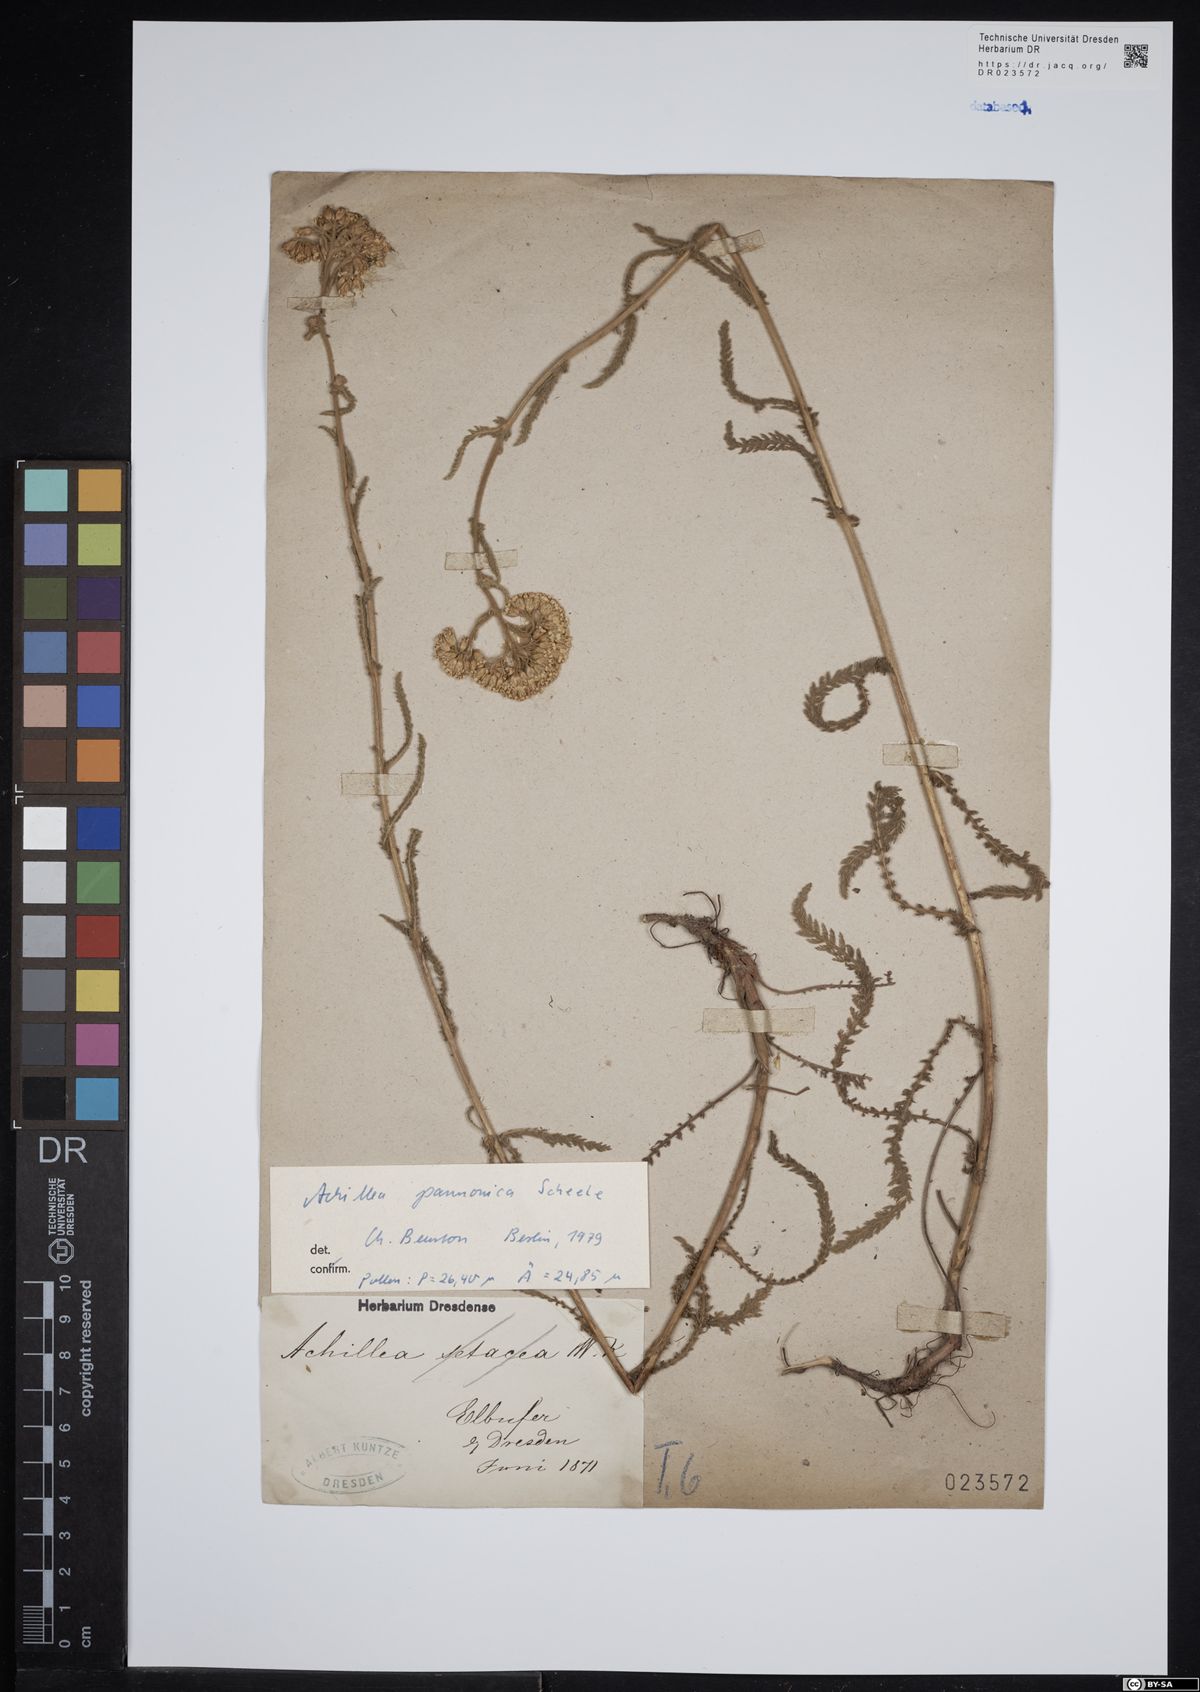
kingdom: Plantae
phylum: Tracheophyta
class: Magnoliopsida
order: Asterales
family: Asteraceae
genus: Achillea
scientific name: Achillea pannonica
